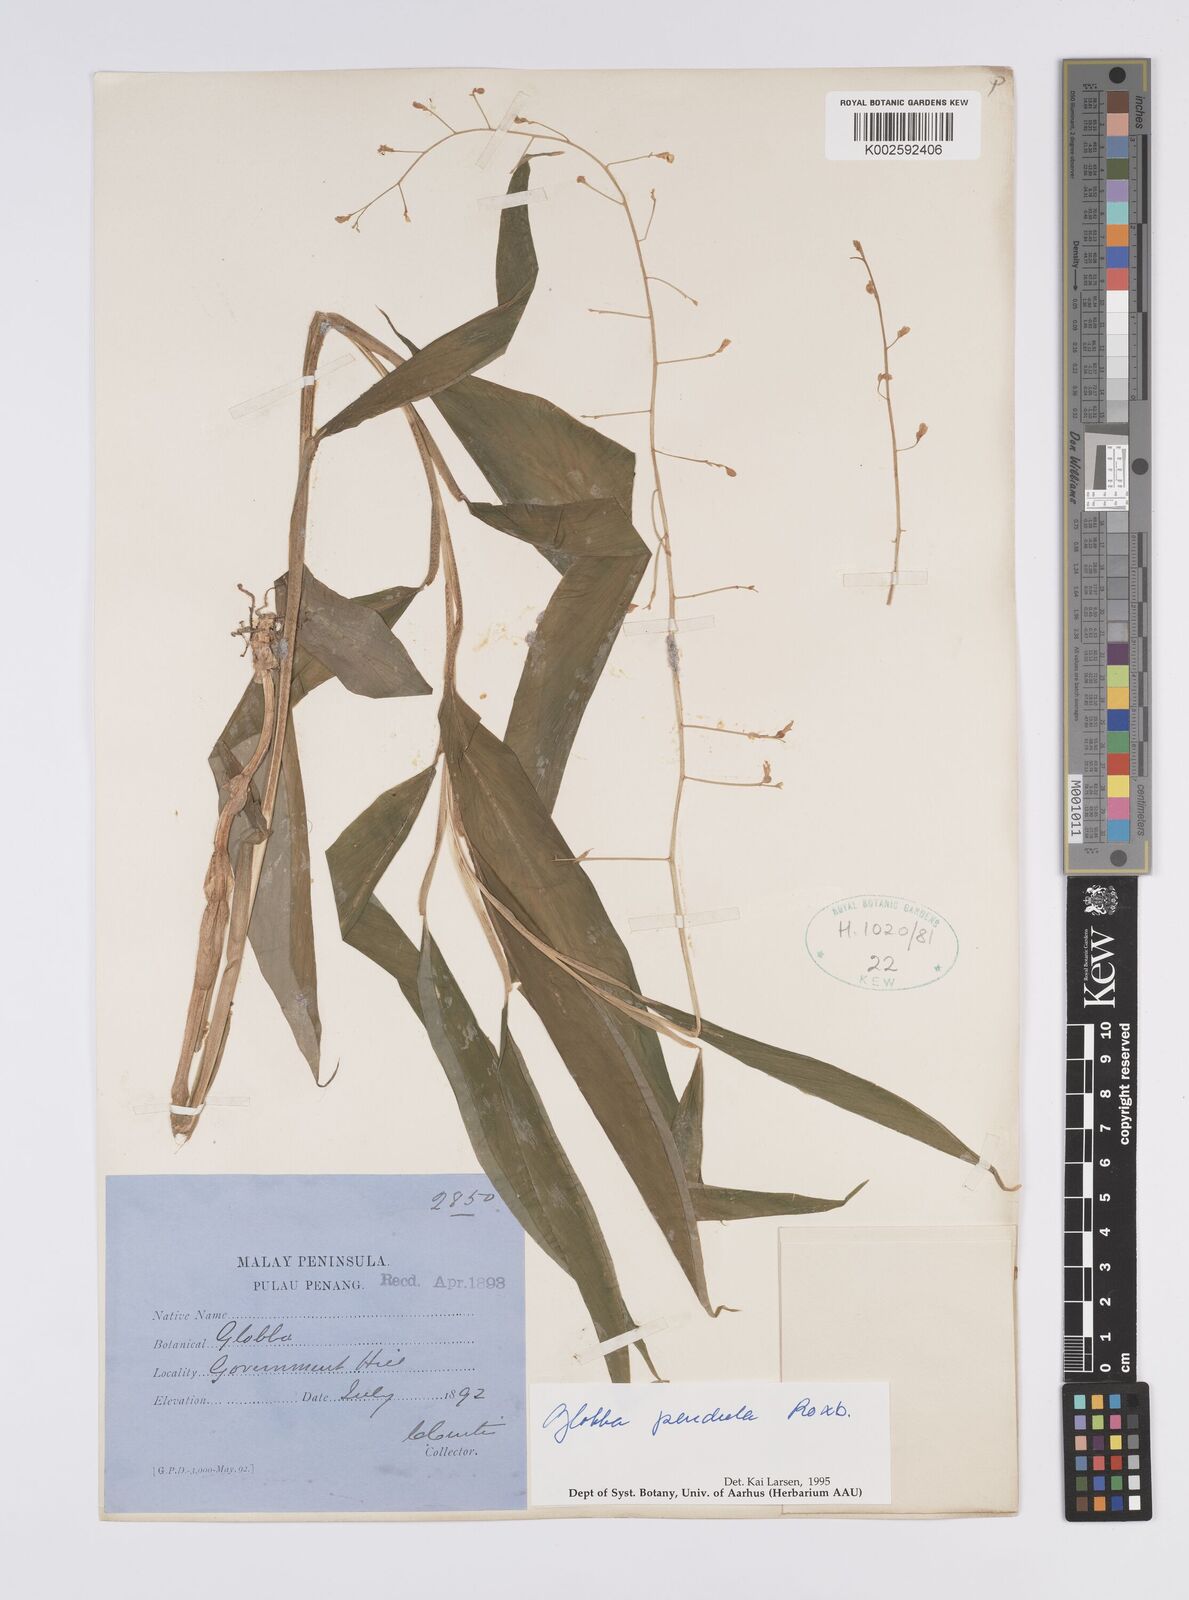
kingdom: Plantae
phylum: Tracheophyta
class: Liliopsida
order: Zingiberales
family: Zingiberaceae
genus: Globba
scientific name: Globba pendula
